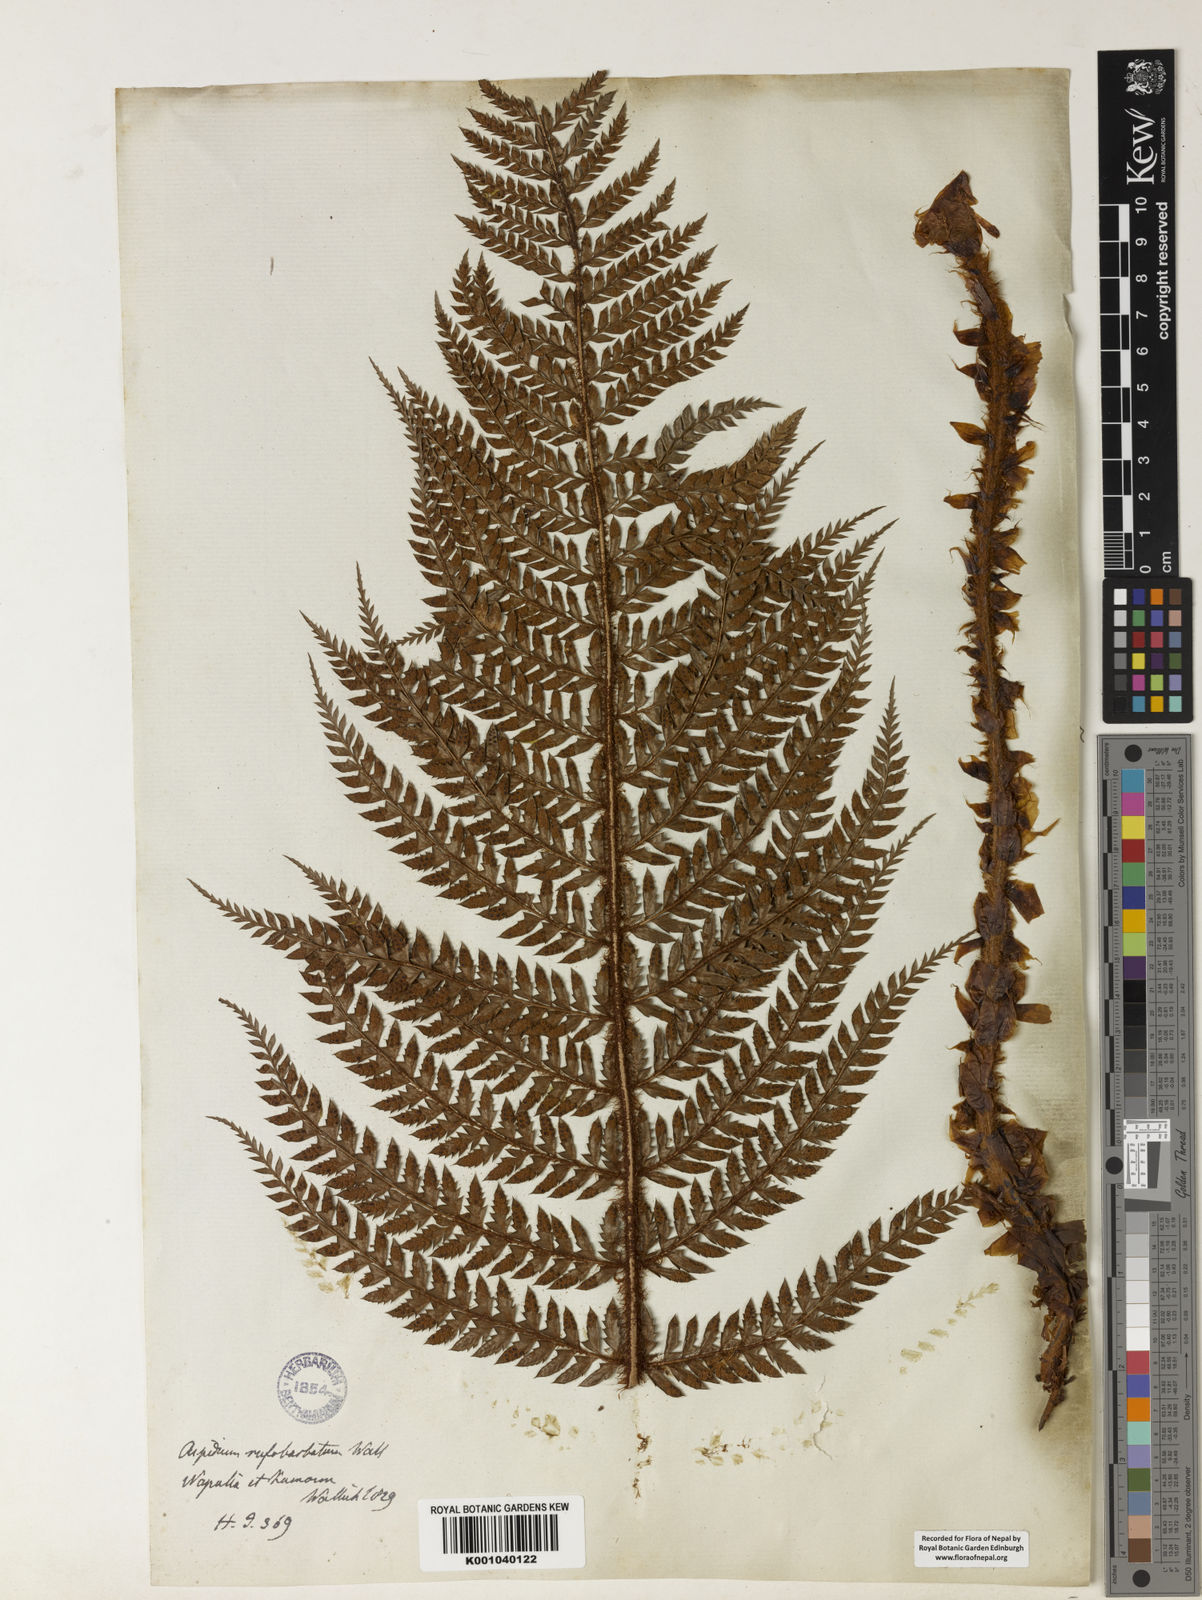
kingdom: Plantae
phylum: Tracheophyta
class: Polypodiopsida
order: Polypodiales
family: Dryopteridaceae
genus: Polystichum
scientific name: Polystichum
